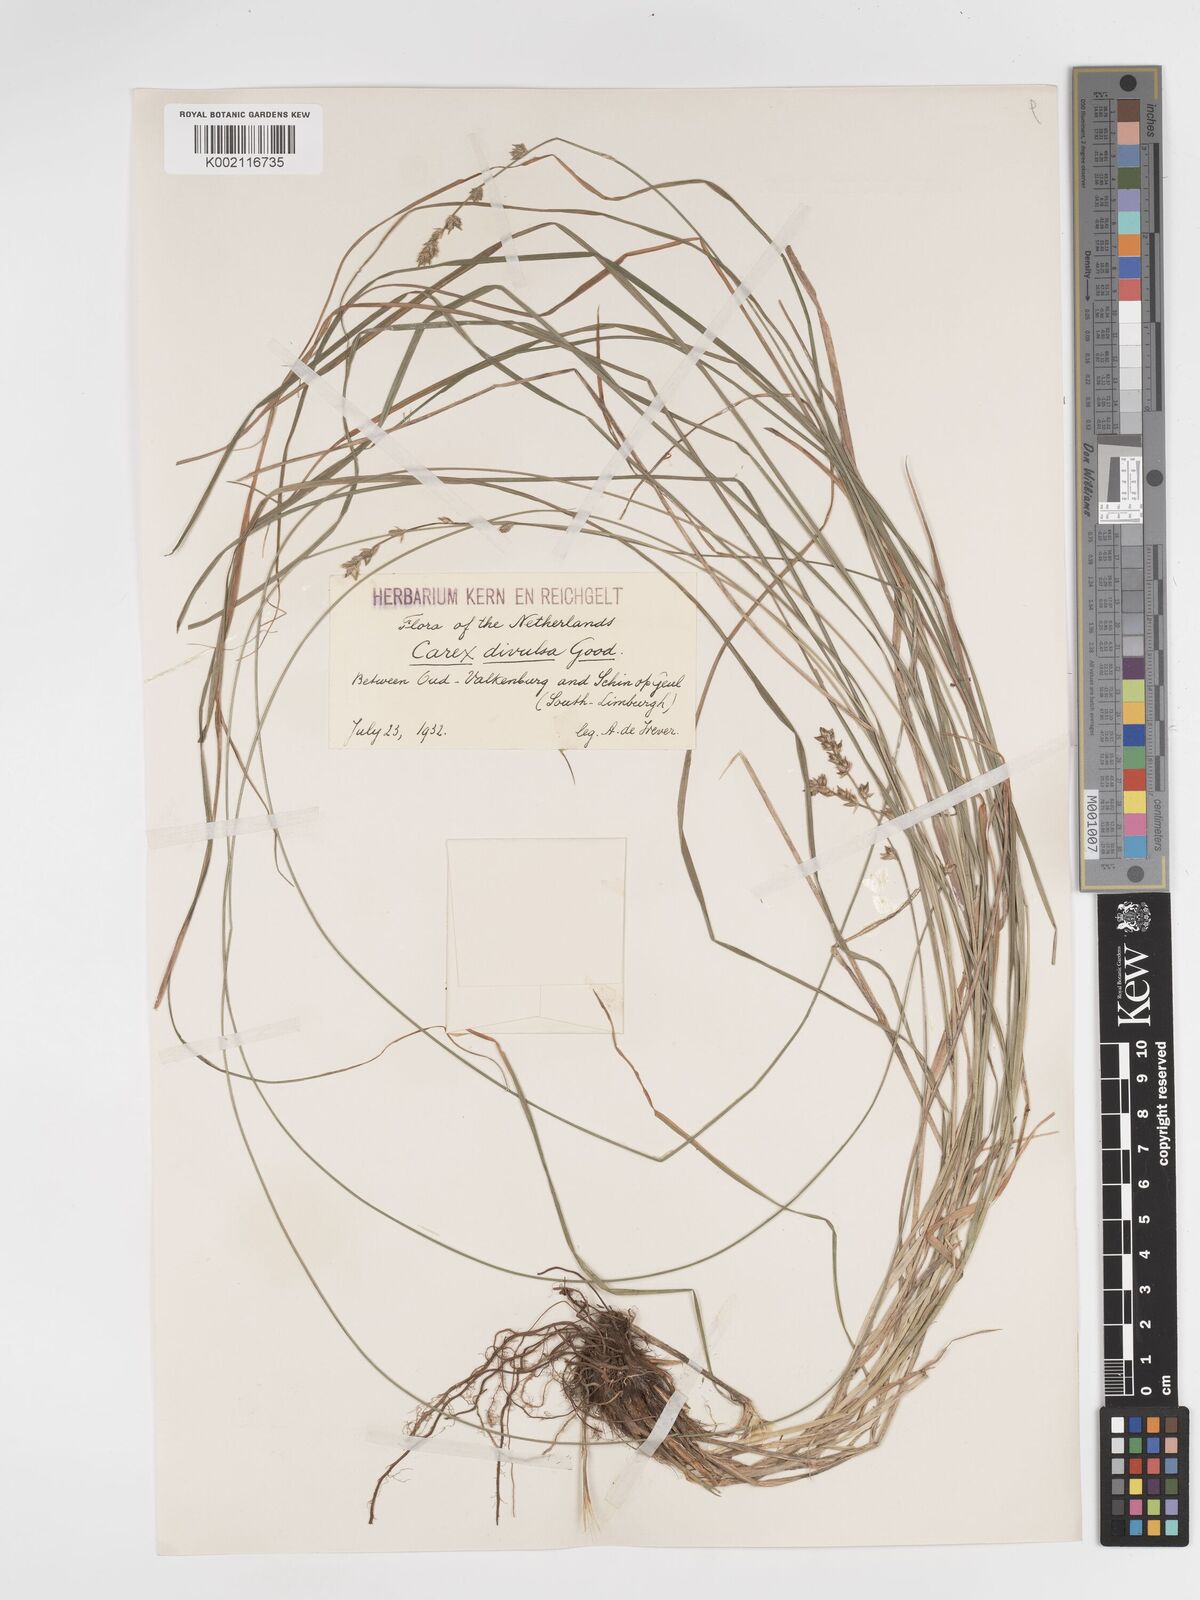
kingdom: Plantae
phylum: Tracheophyta
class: Liliopsida
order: Poales
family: Cyperaceae
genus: Carex
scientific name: Carex divulsa
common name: Grassland sedge
